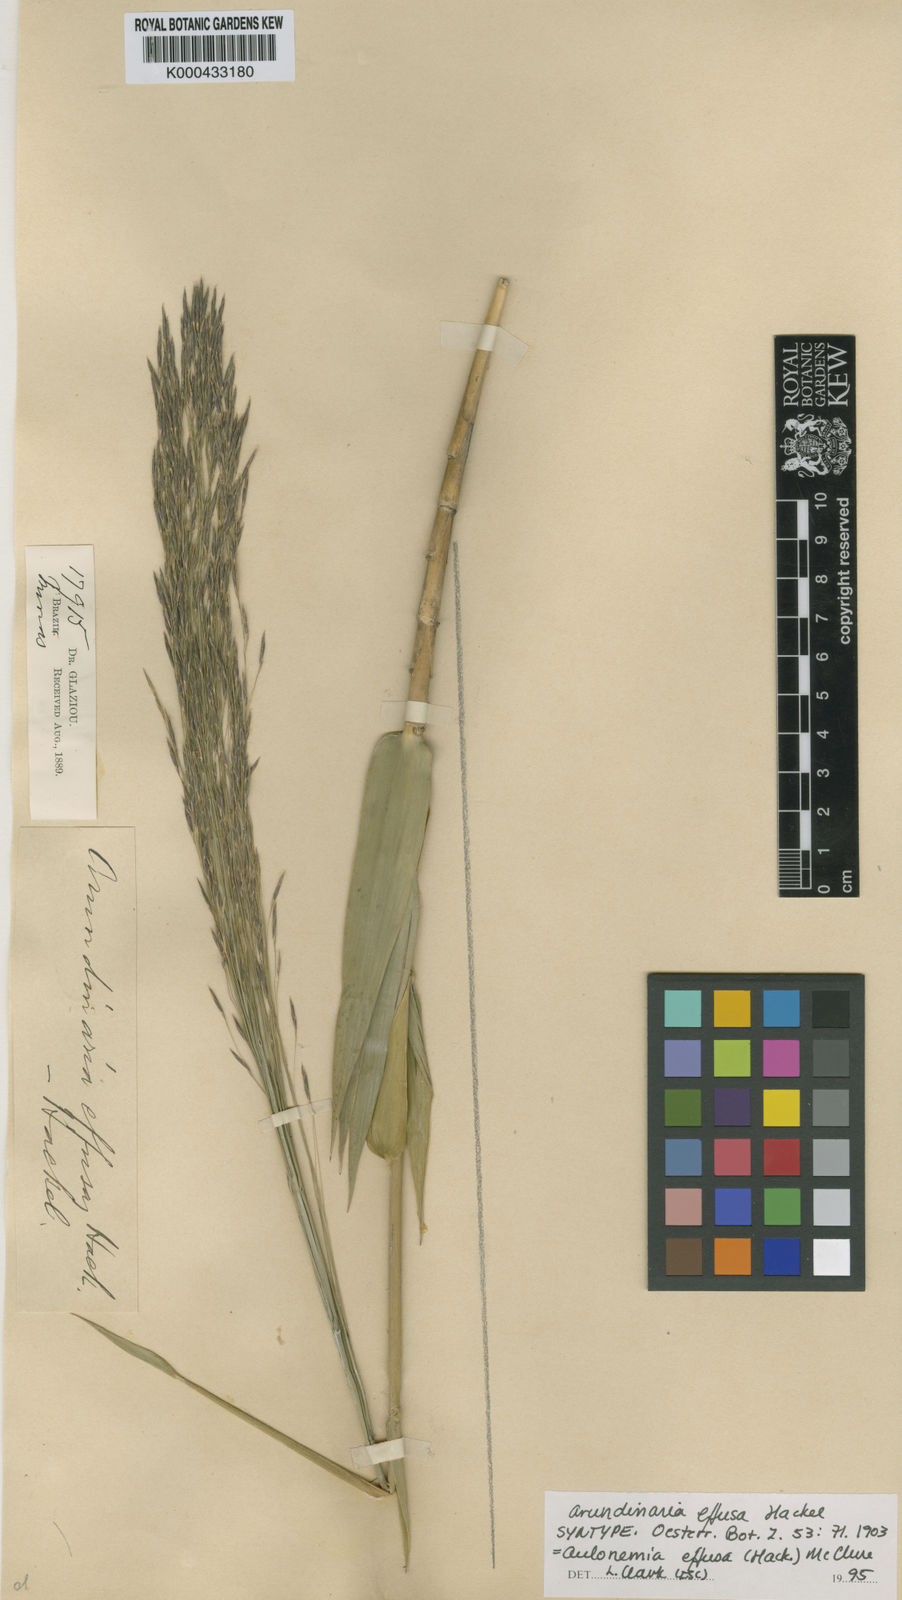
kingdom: Plantae
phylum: Tracheophyta
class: Liliopsida
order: Poales
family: Poaceae
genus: Aulonemia
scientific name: Aulonemia effusa
